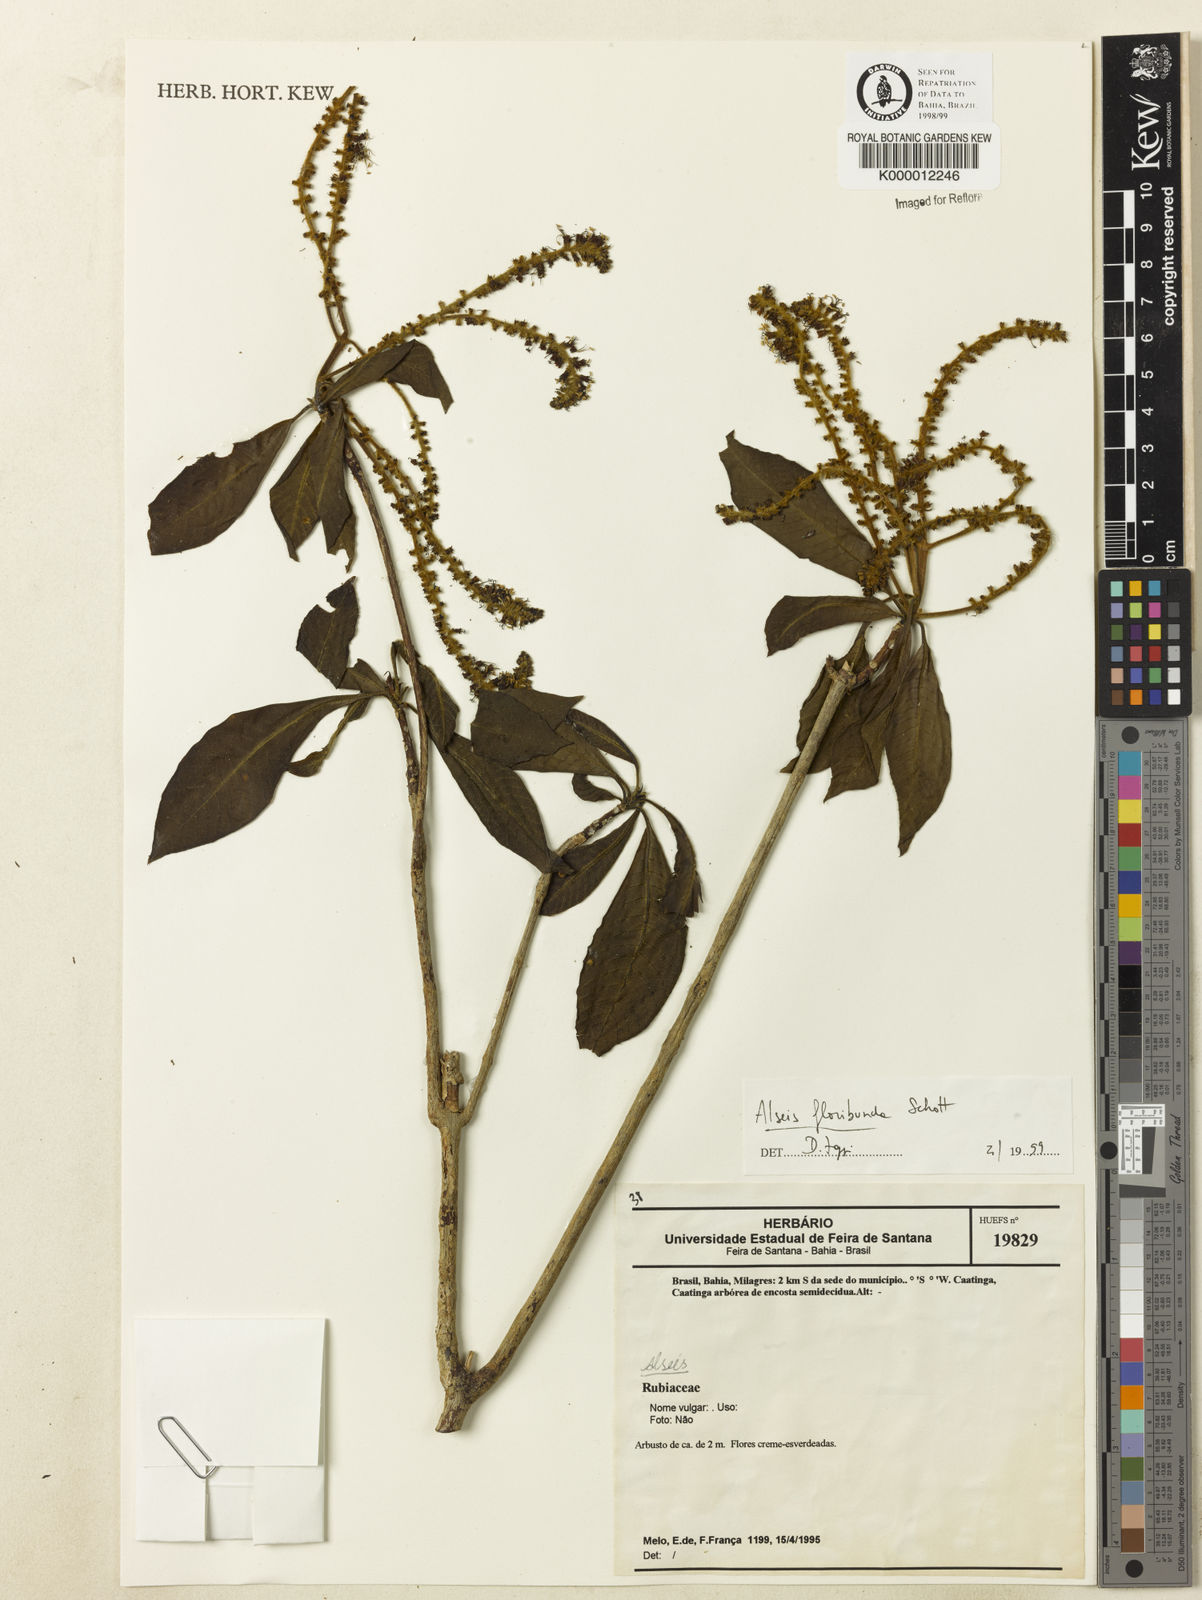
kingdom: Plantae
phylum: Tracheophyta
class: Magnoliopsida
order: Gentianales
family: Rubiaceae
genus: Alseis
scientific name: Alseis floribunda
